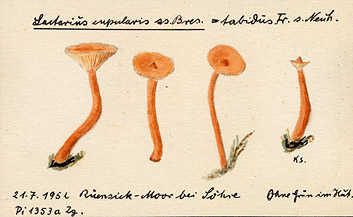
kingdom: Fungi
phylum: Basidiomycota
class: Agaricomycetes
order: Russulales
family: Russulaceae
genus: Lactarius
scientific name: Lactarius omphaliiformis
